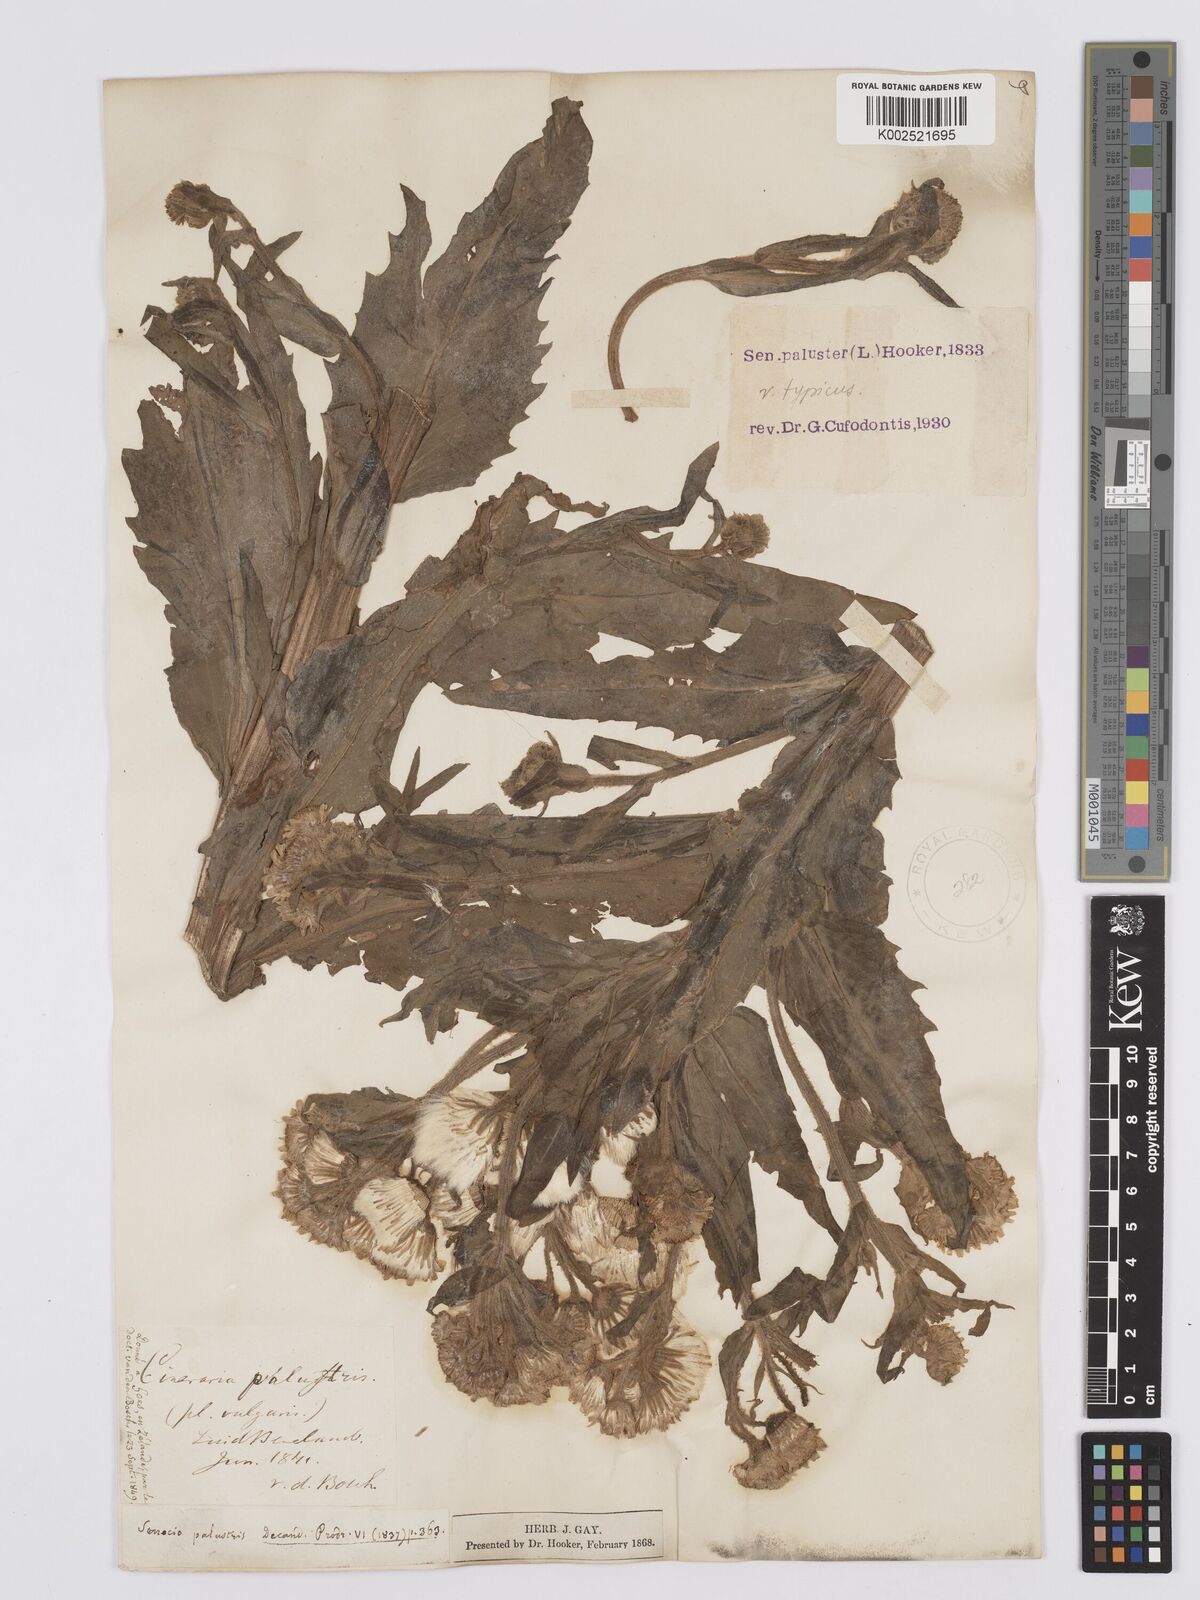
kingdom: Plantae
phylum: Tracheophyta
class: Magnoliopsida
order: Asterales
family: Asteraceae
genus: Tephroseris
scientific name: Tephroseris palustris
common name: Marsh fleawort
